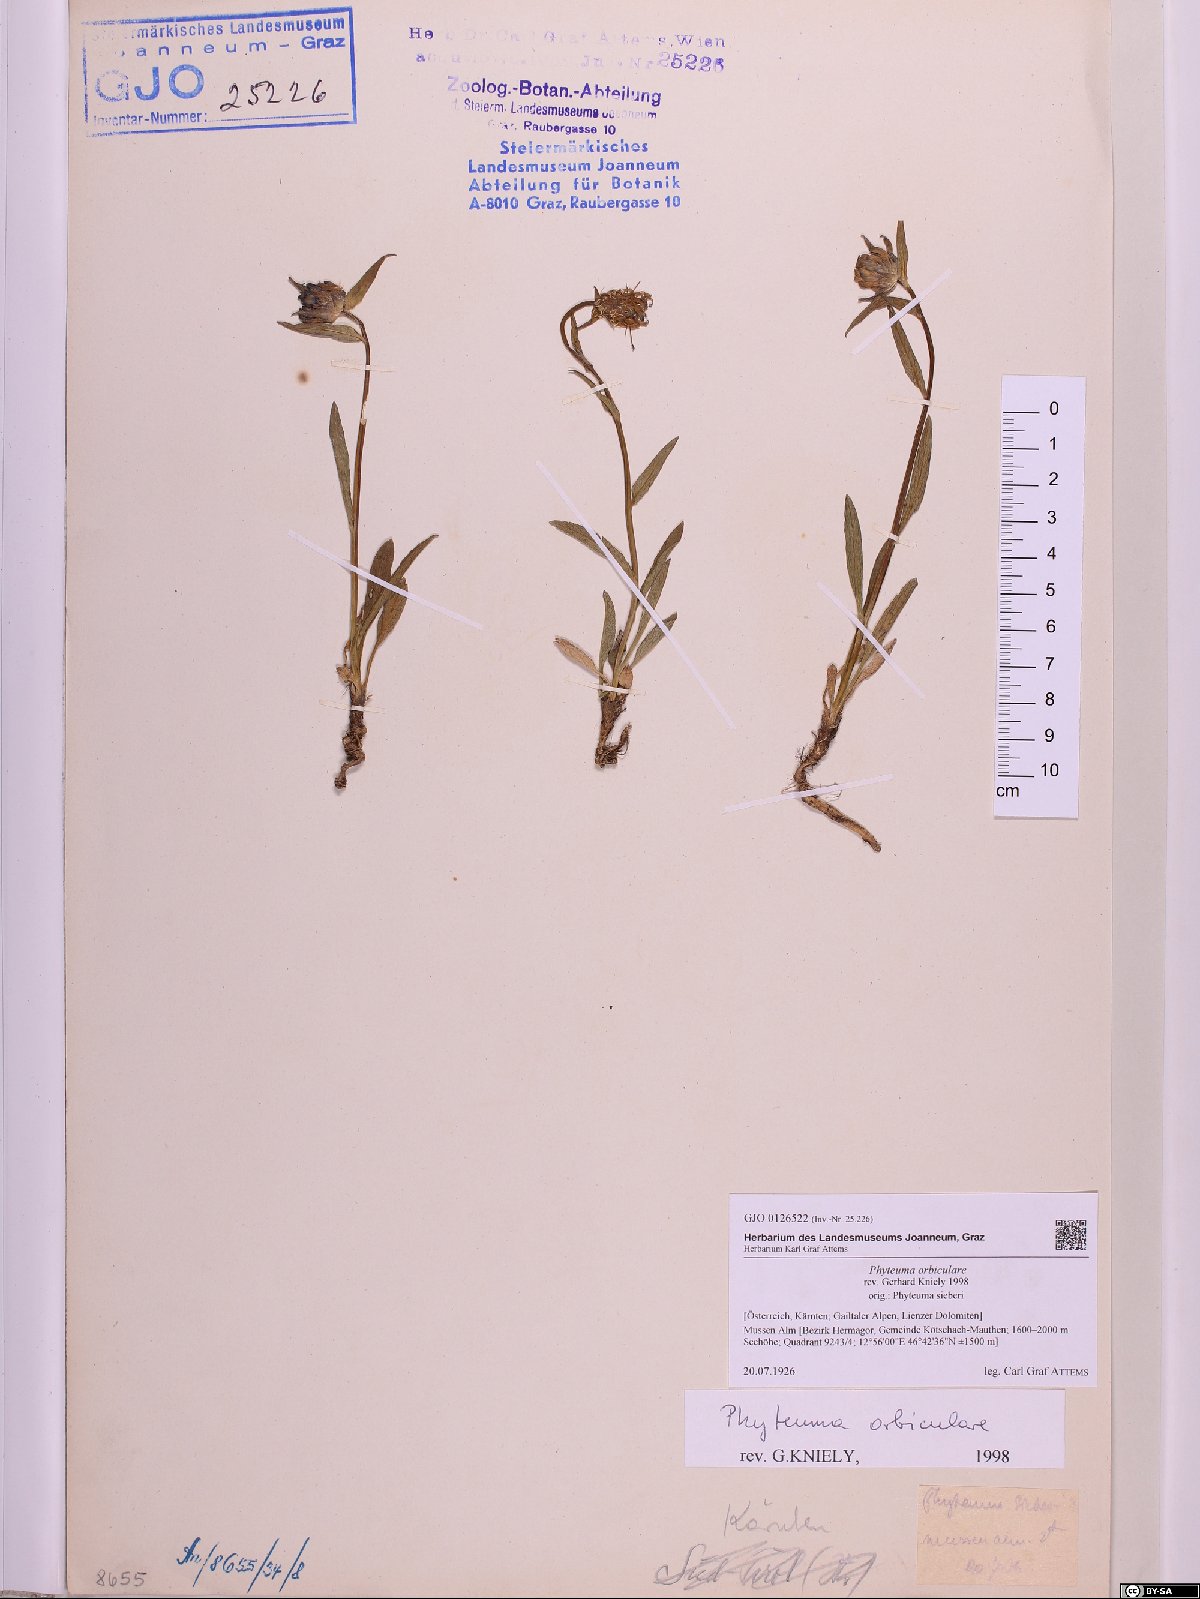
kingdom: Plantae
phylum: Tracheophyta
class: Magnoliopsida
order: Asterales
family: Campanulaceae
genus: Phyteuma
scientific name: Phyteuma orbiculare
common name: Round-headed rampion
